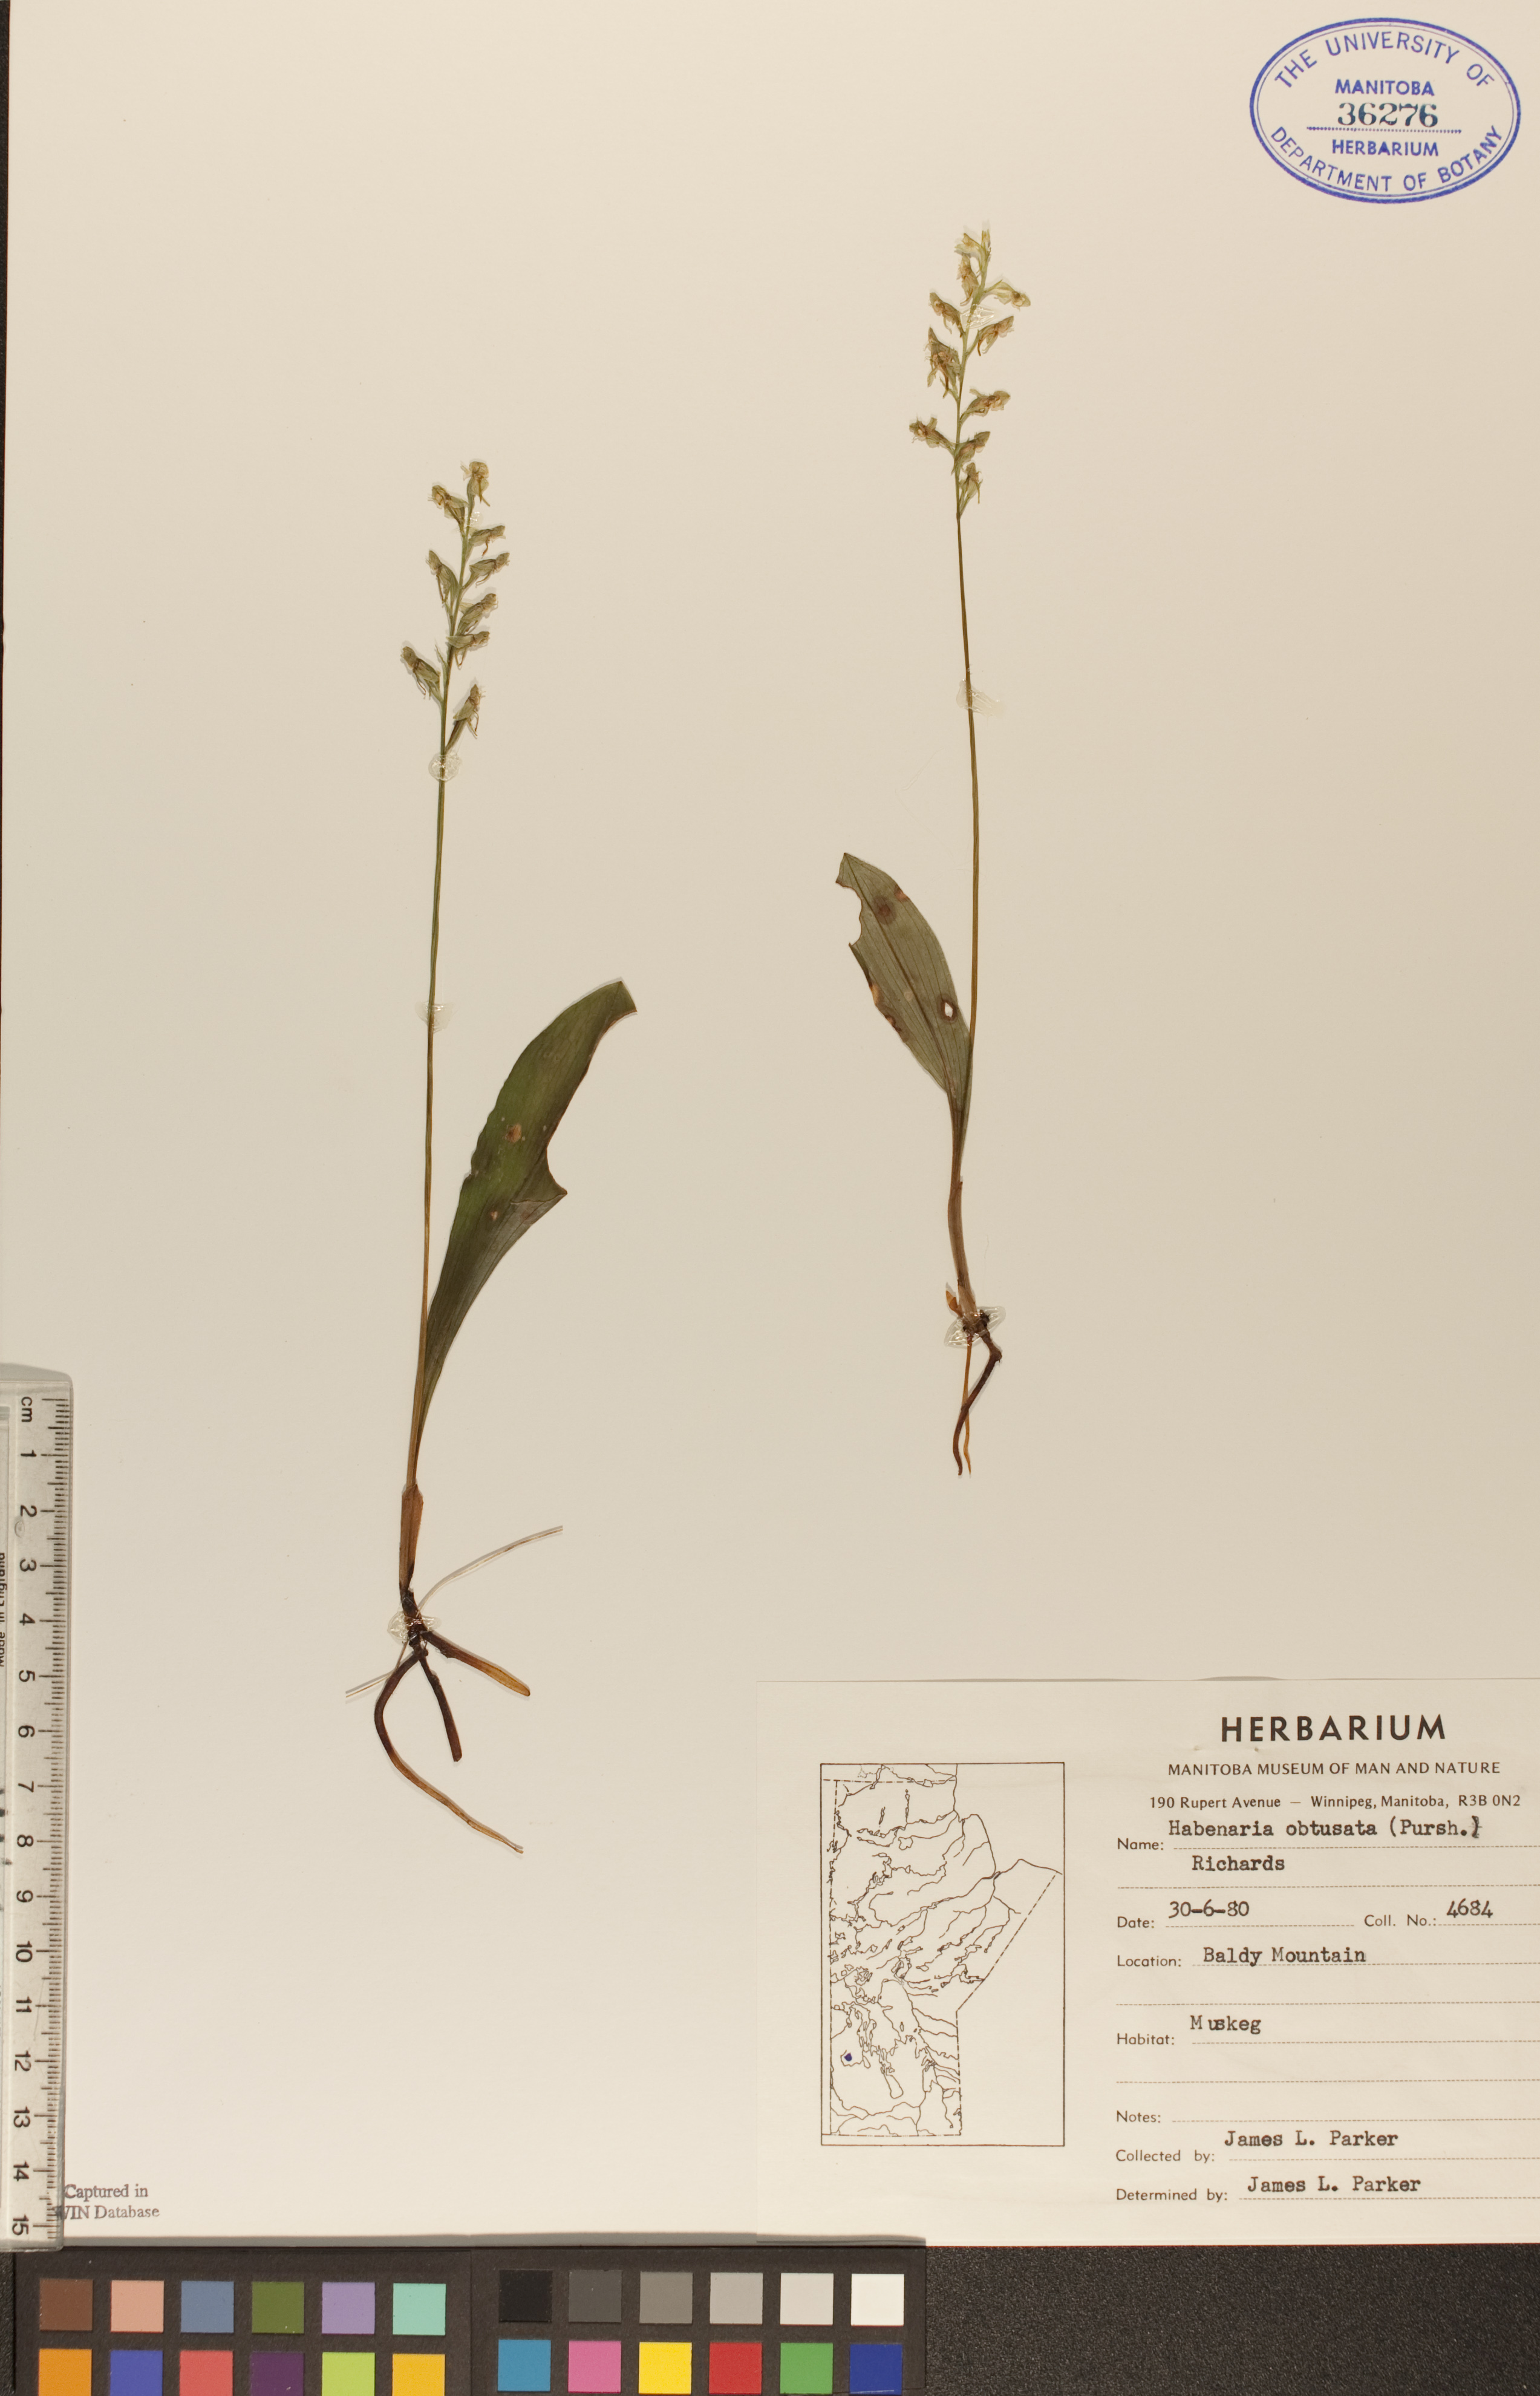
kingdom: Plantae
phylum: Tracheophyta
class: Liliopsida
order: Asparagales
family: Orchidaceae
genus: Platanthera
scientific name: Platanthera obtusata
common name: Blunt bog orchid
